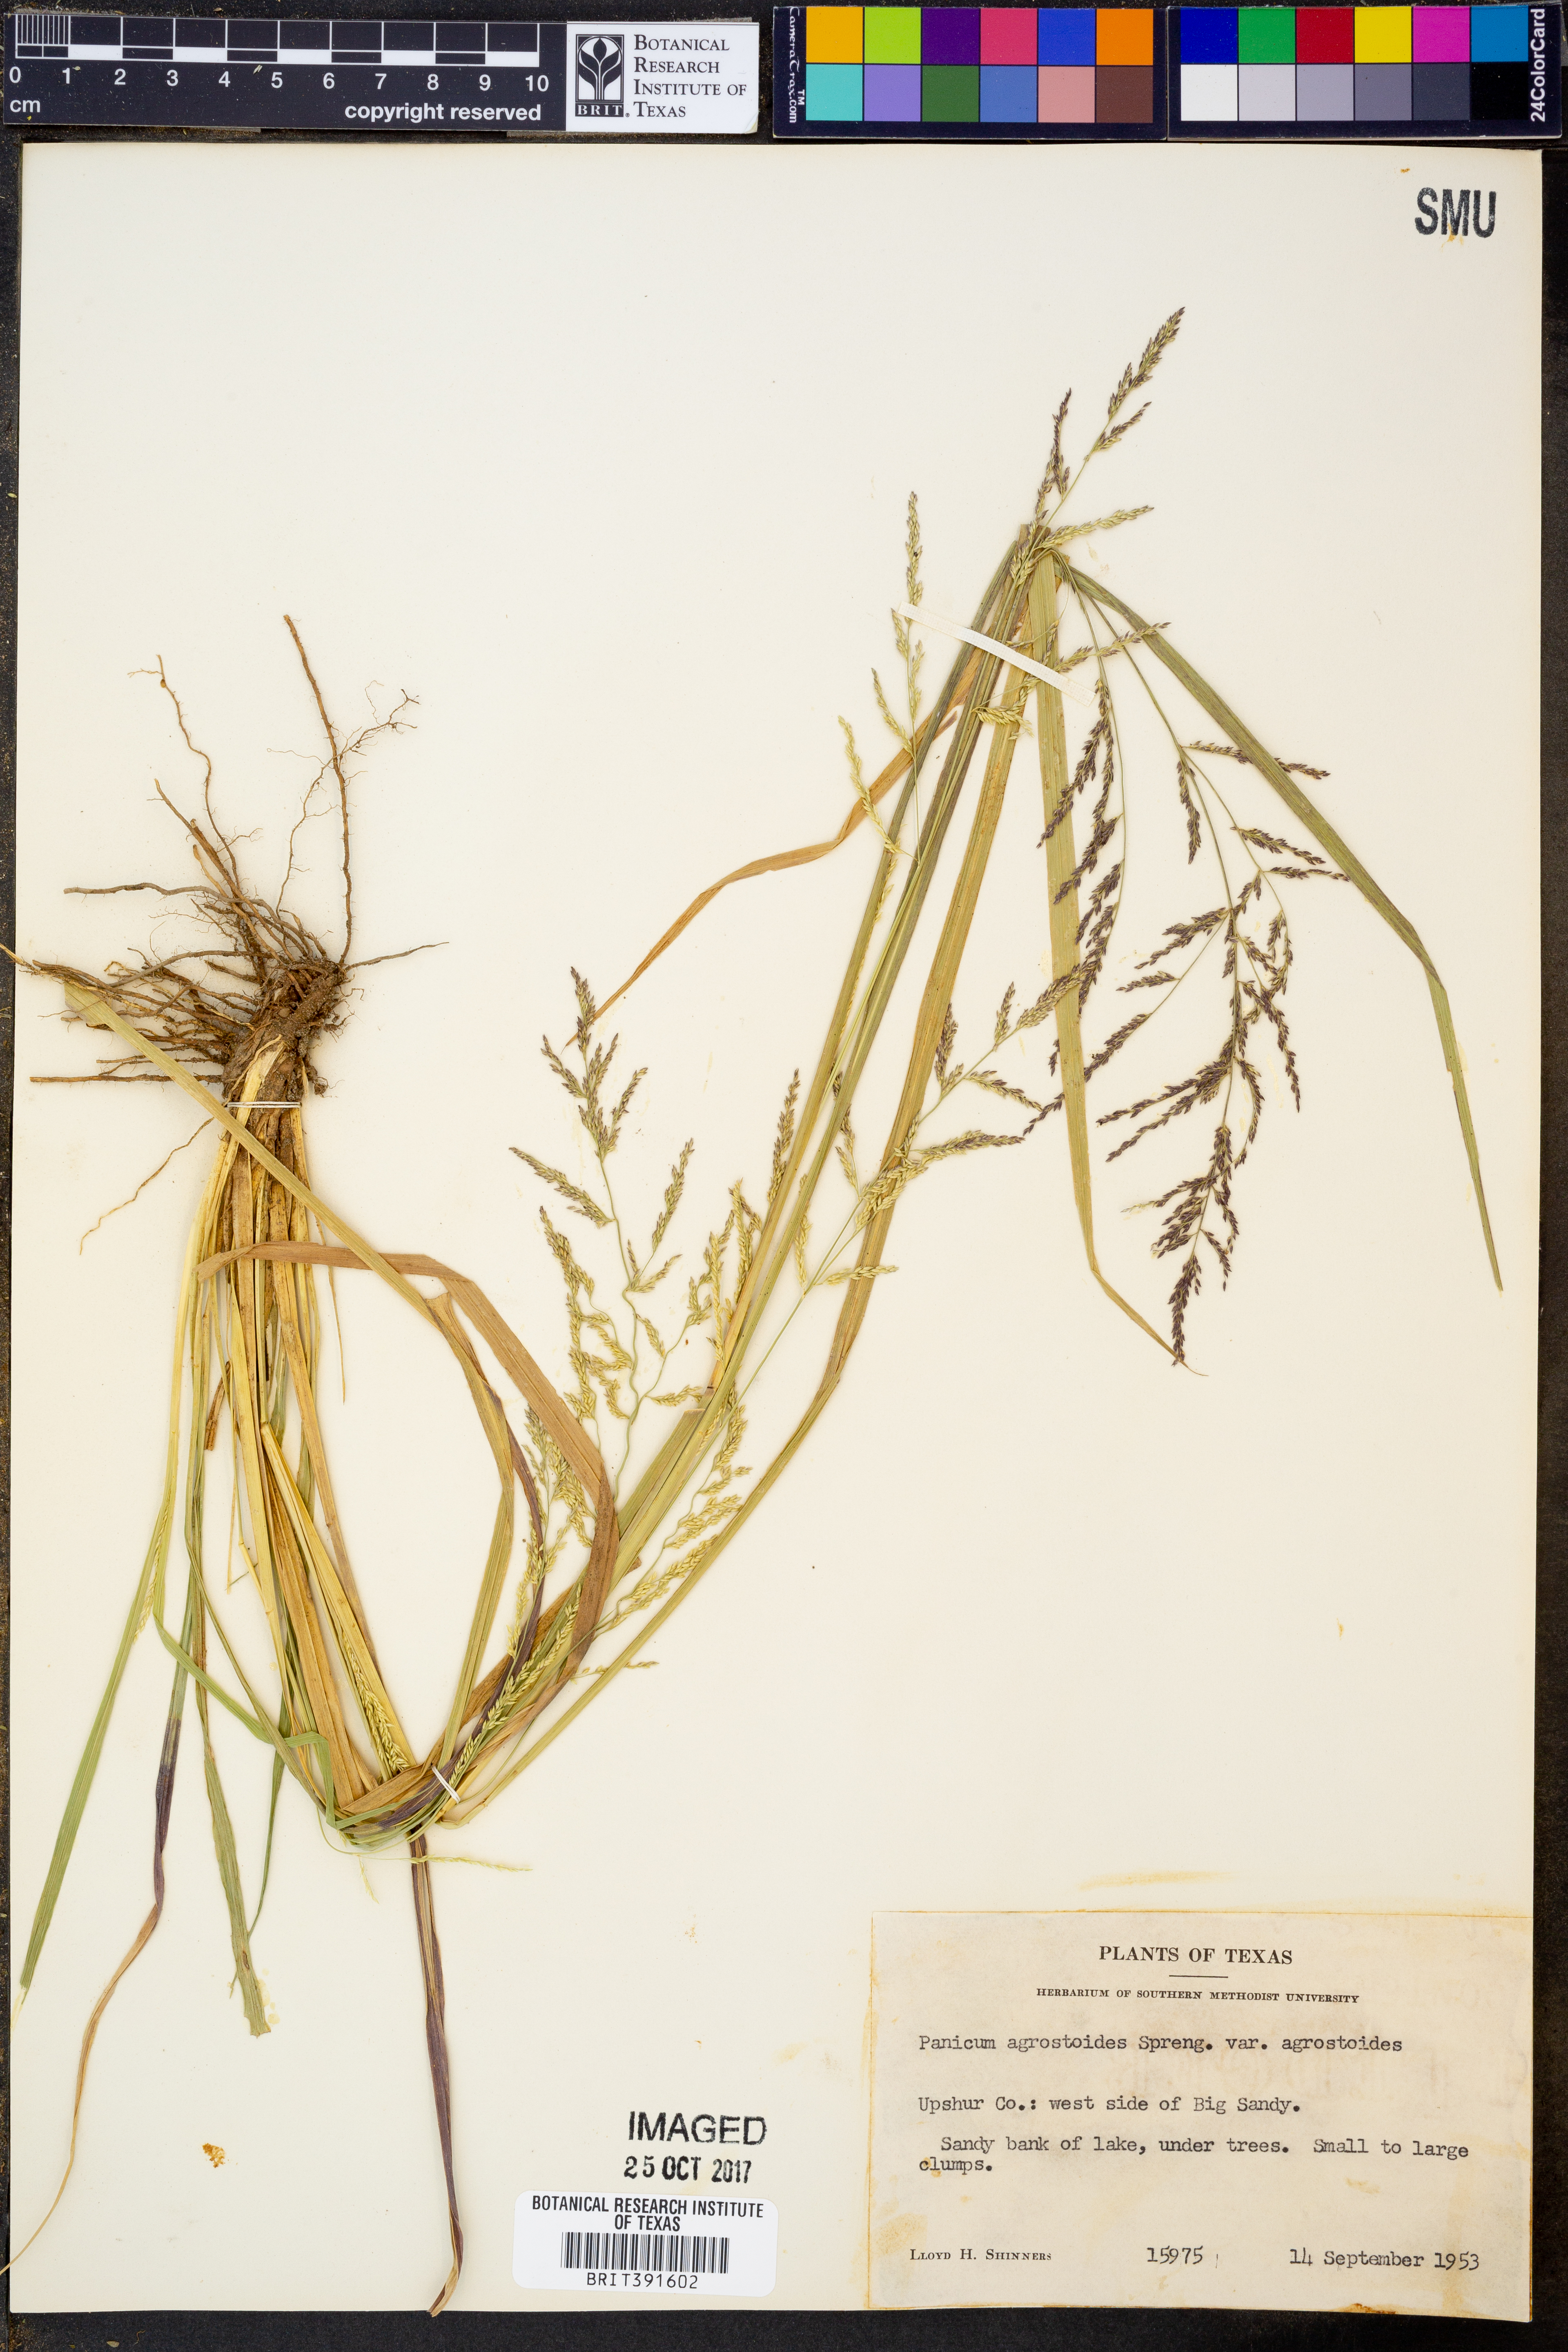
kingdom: Plantae
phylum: Tracheophyta
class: Liliopsida
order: Poales
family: Poaceae
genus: Coleataenia
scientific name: Coleataenia rigidula
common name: Redtop panicgrass
